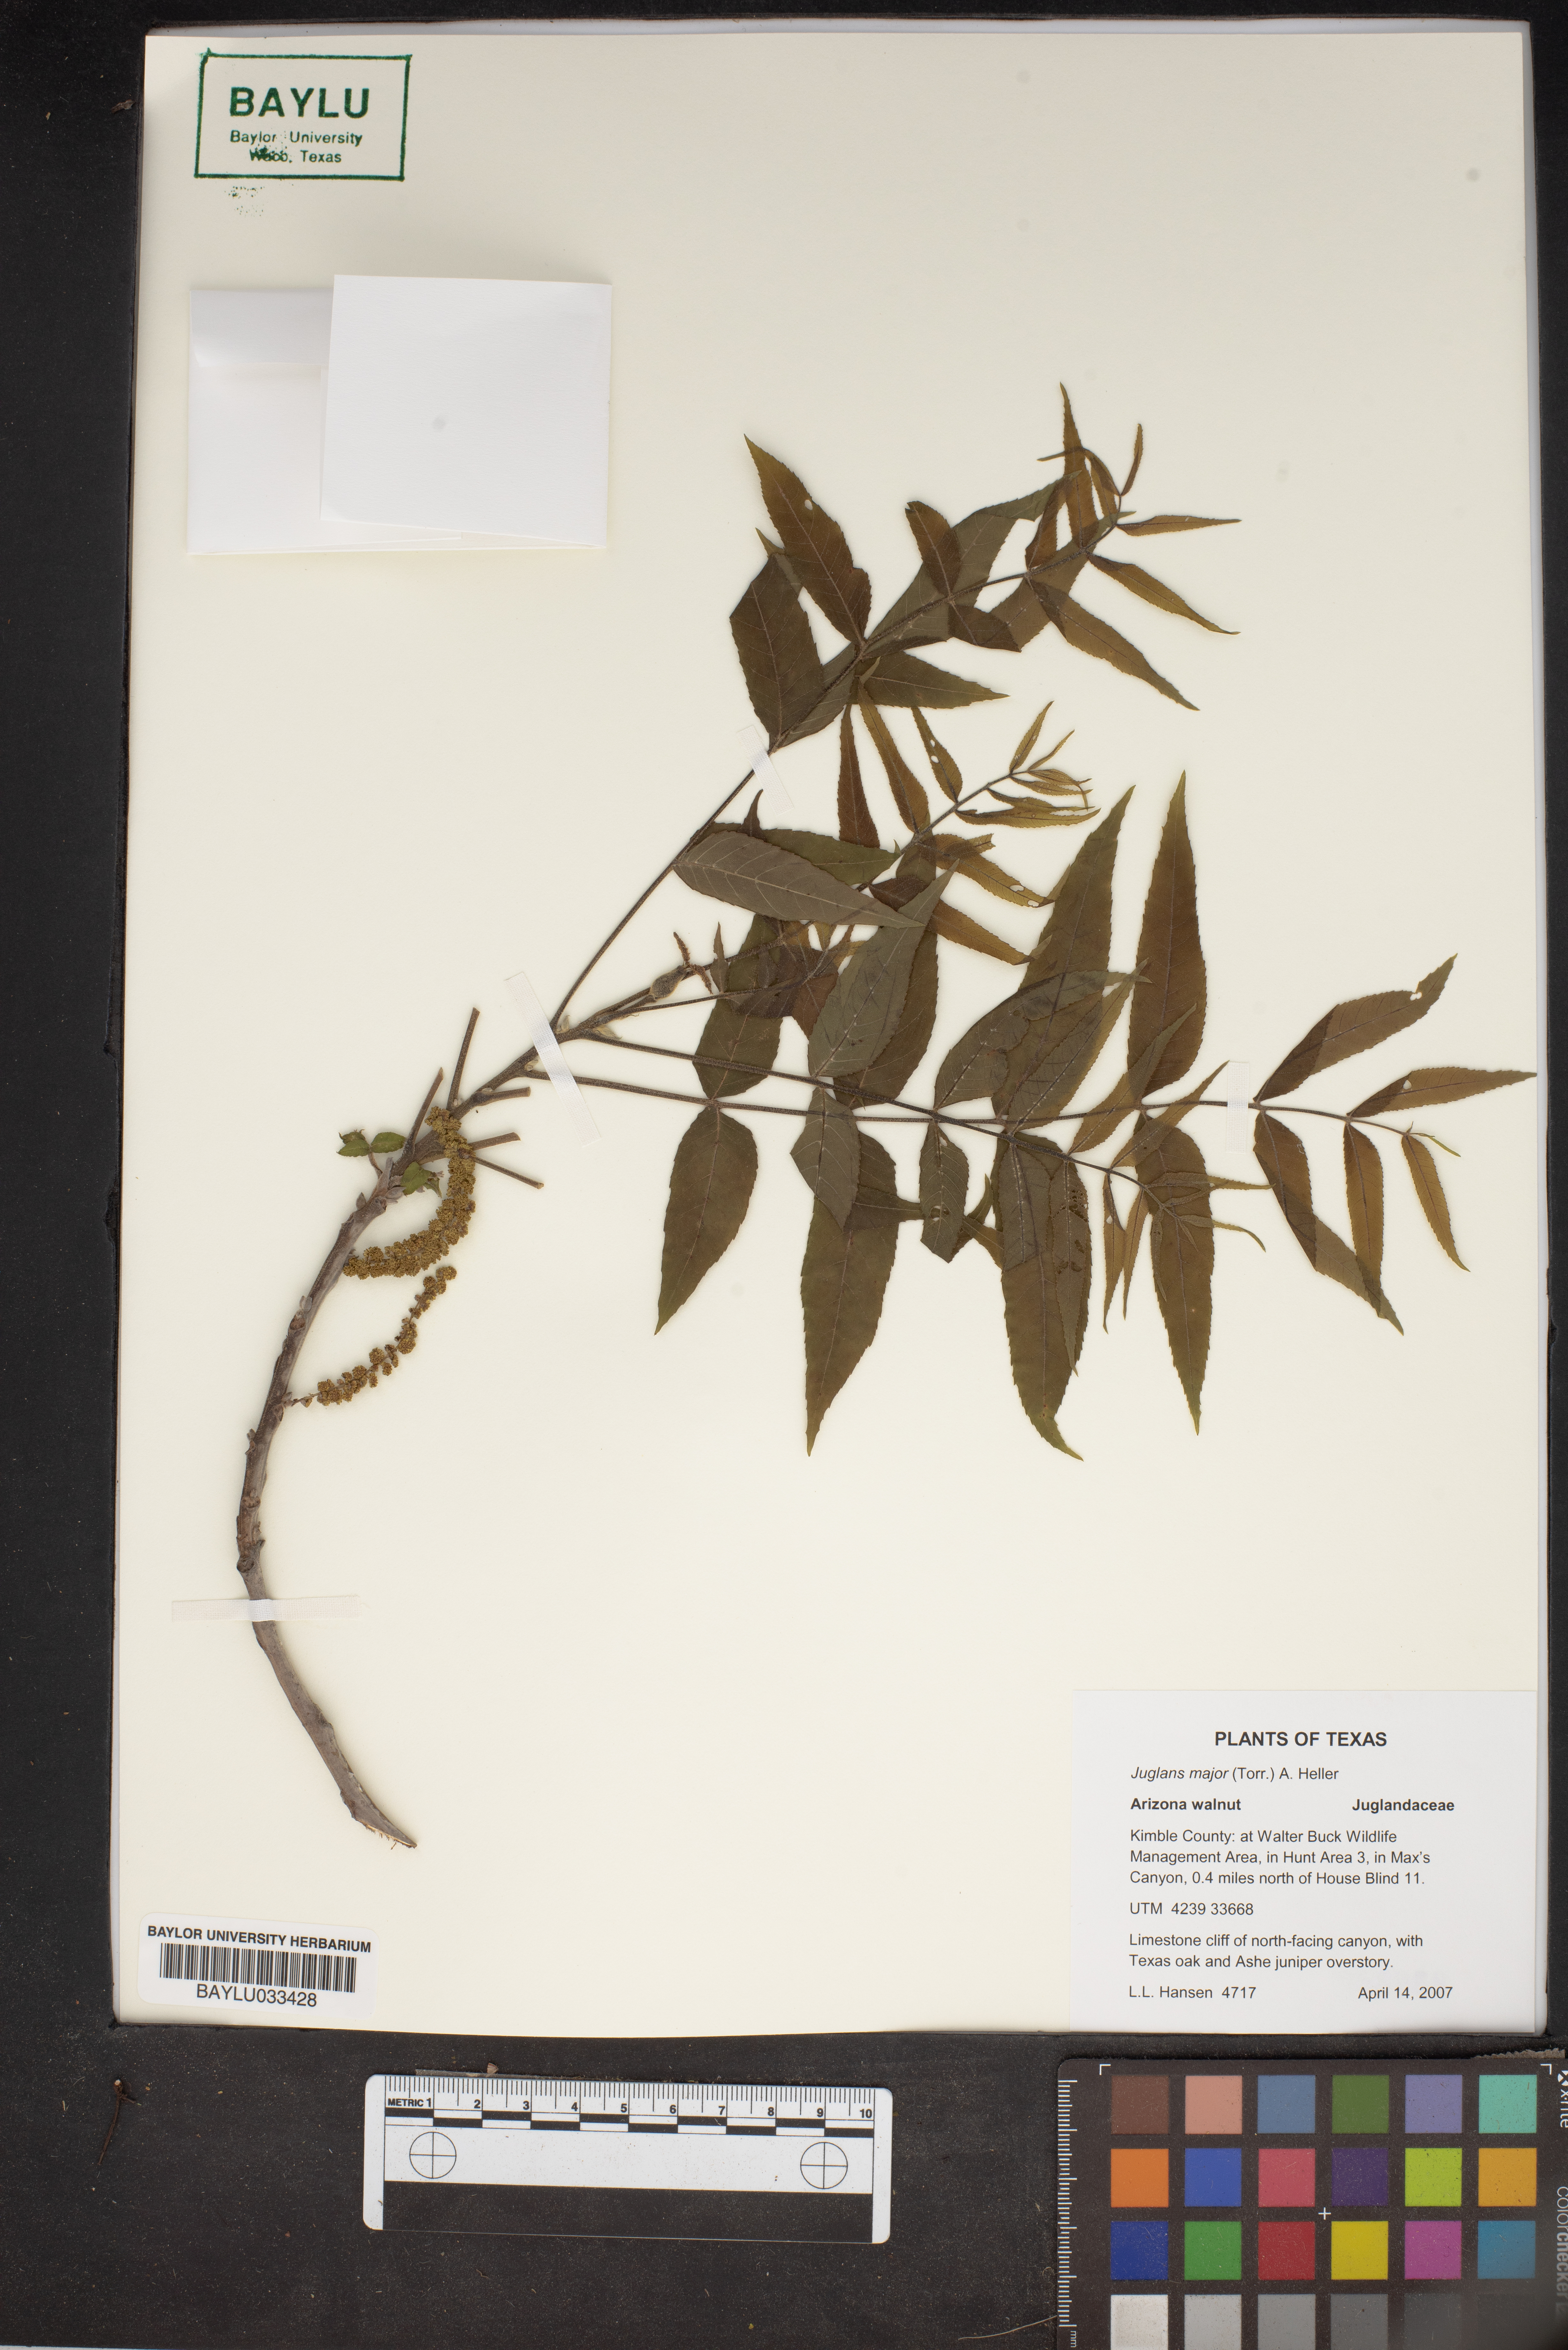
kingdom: Plantae
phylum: Tracheophyta
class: Magnoliopsida
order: Fagales
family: Juglandaceae
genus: Juglans
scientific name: Juglans major
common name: Arizona walnut
